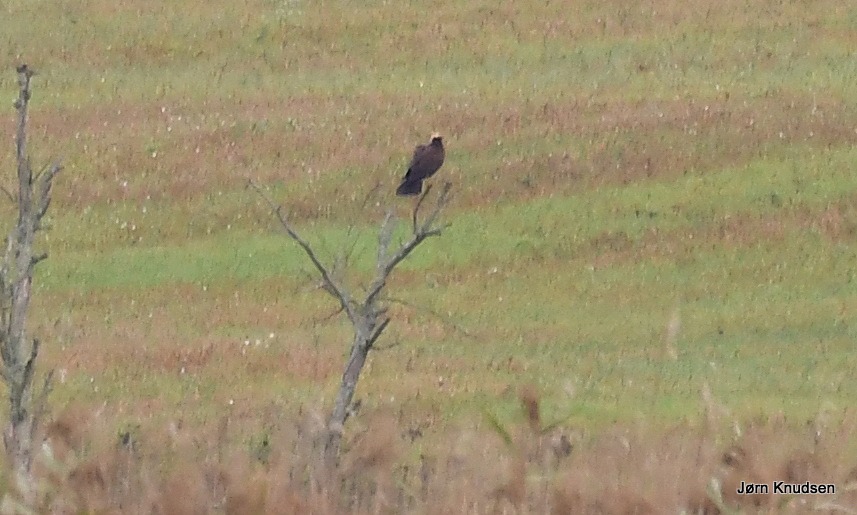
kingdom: Animalia
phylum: Chordata
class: Aves
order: Accipitriformes
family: Accipitridae
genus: Circus
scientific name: Circus aeruginosus
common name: Rørhøg
